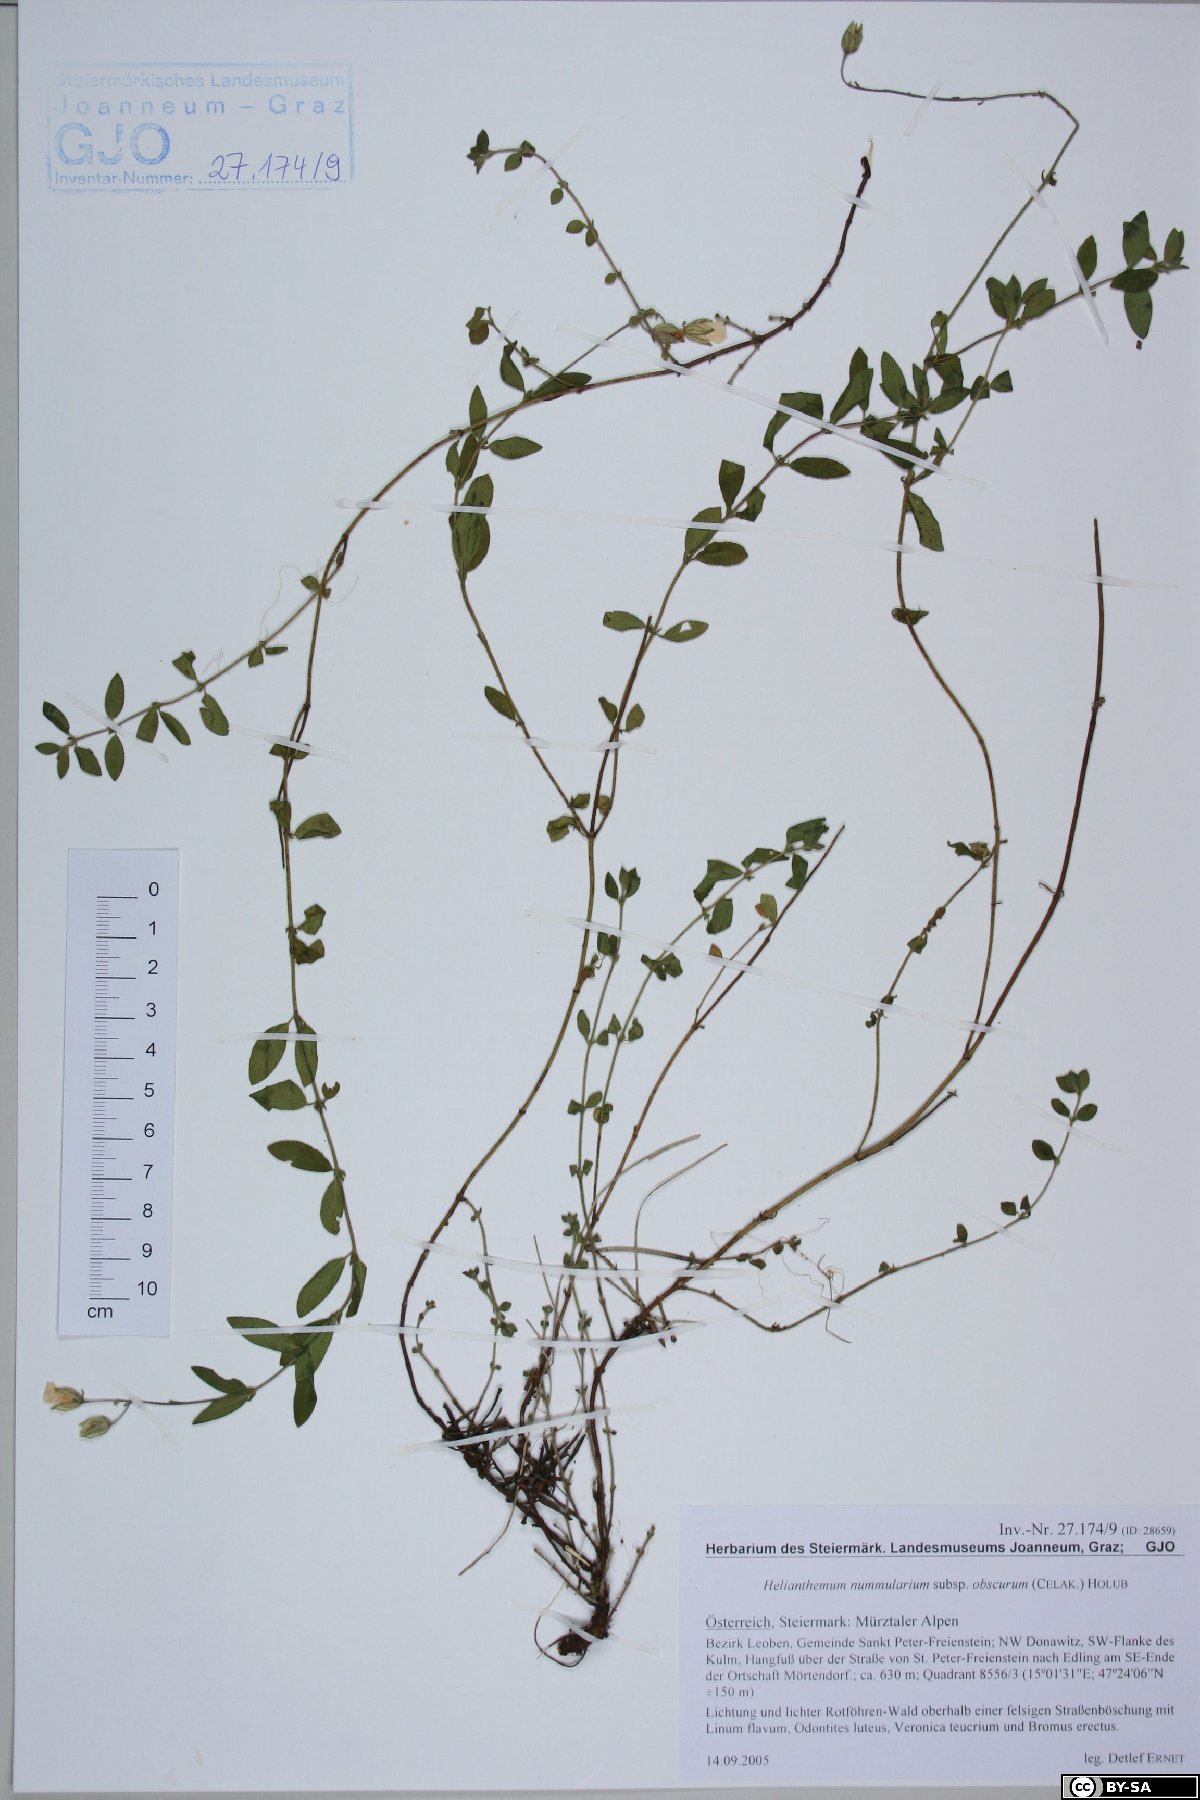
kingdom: Plantae
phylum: Tracheophyta
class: Magnoliopsida
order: Malvales
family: Cistaceae
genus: Helianthemum
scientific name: Helianthemum nummularium
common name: Common rock-rose
